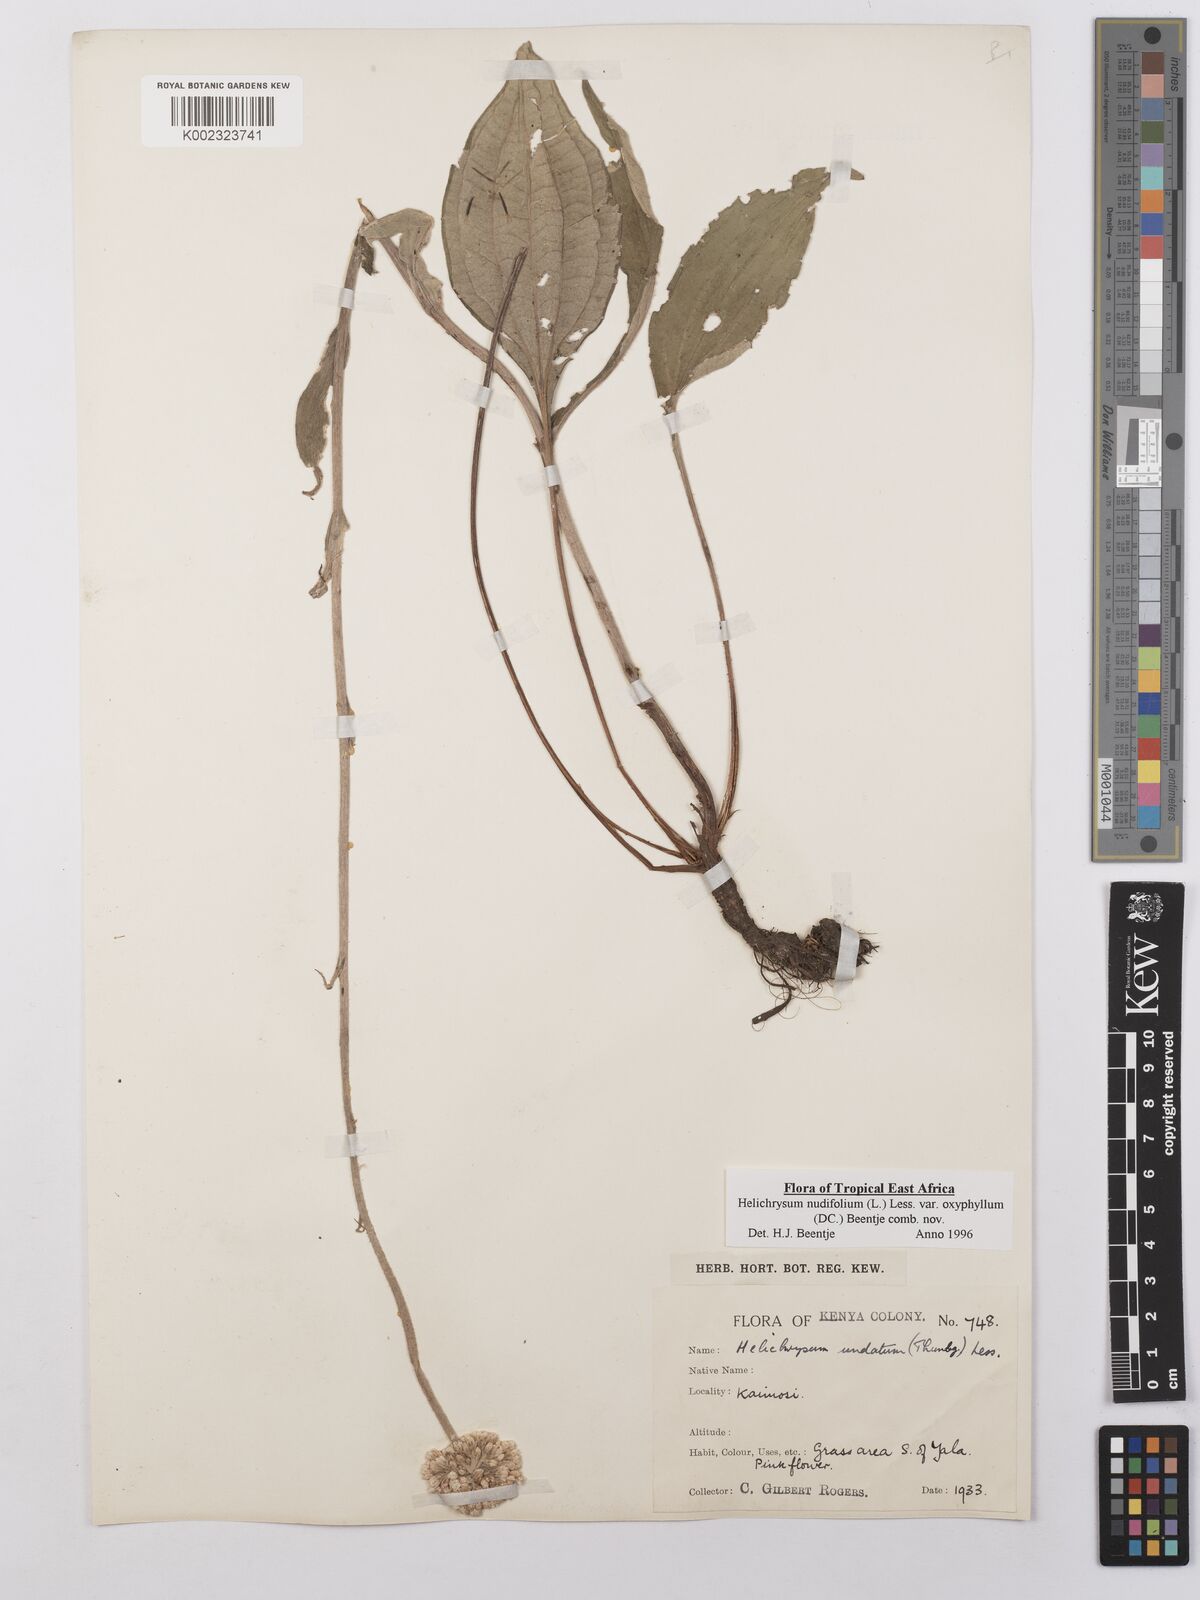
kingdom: Plantae
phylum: Tracheophyta
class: Magnoliopsida
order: Asterales
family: Asteraceae
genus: Helichrysum
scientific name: Helichrysum nudifolium
